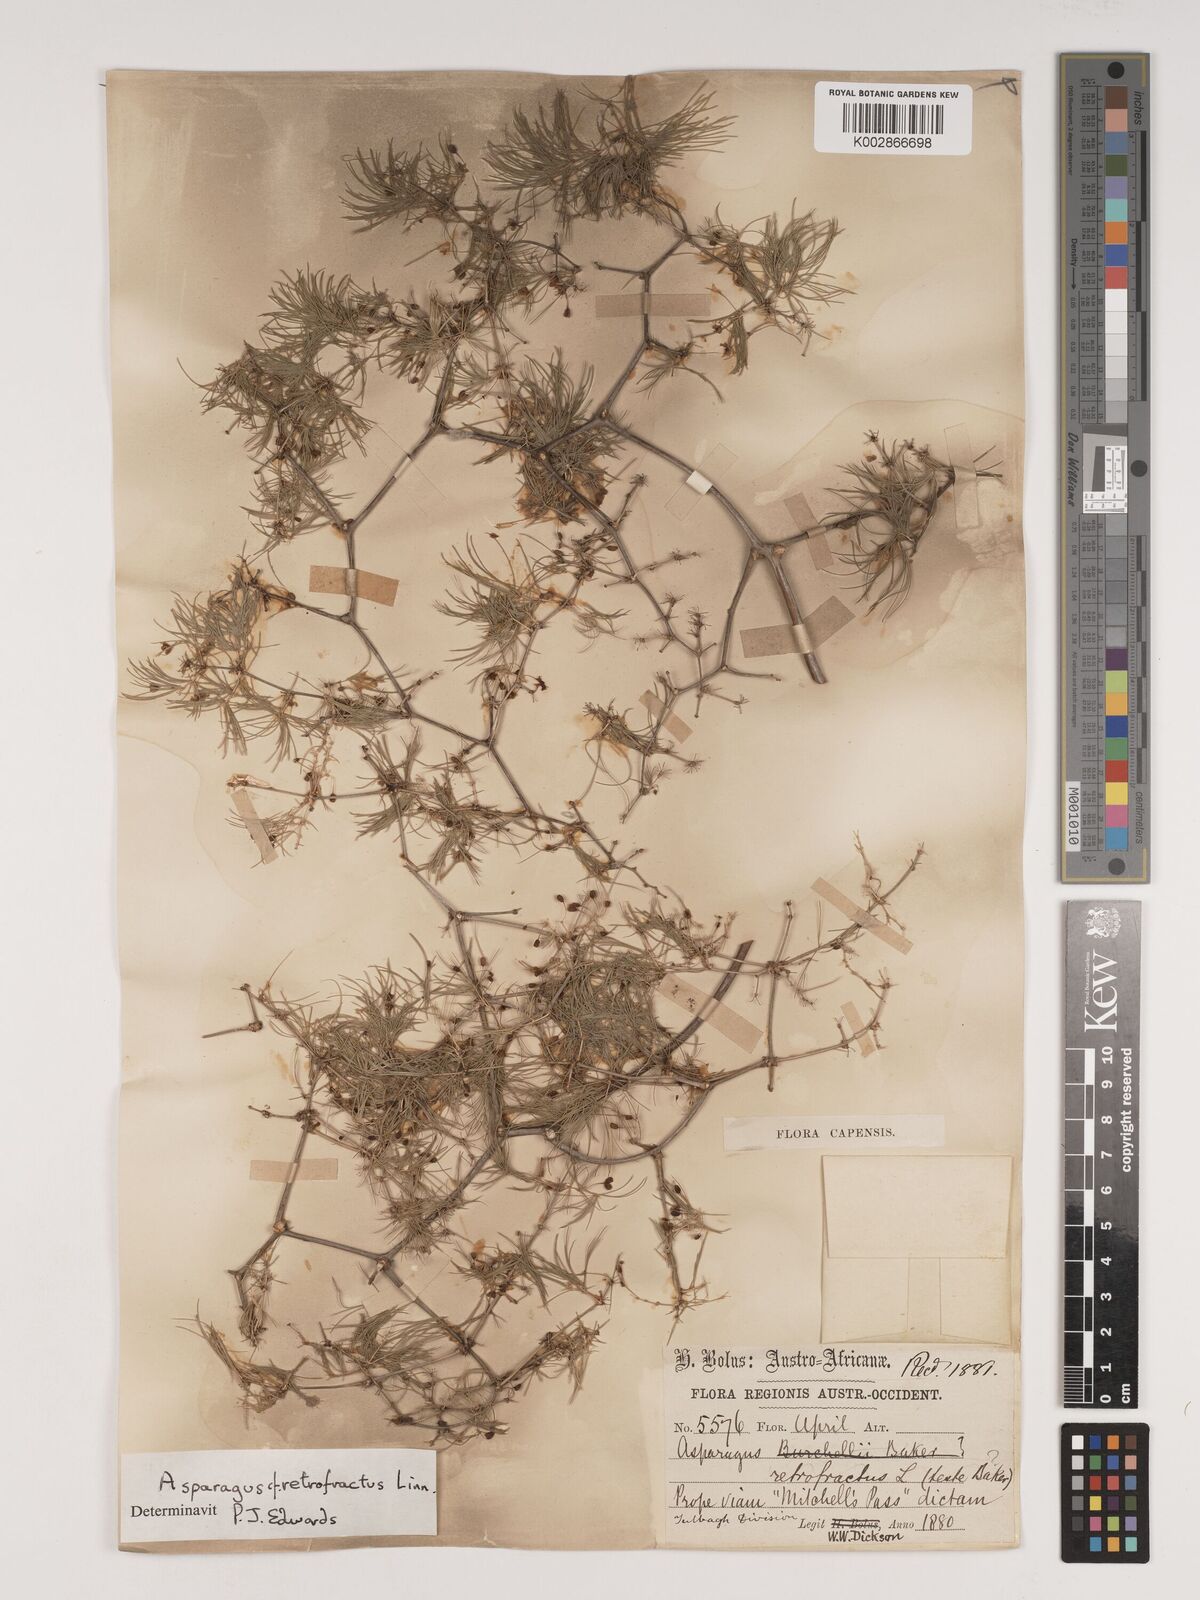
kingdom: Plantae
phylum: Tracheophyta
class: Liliopsida
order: Asparagales
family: Asparagaceae
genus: Asparagus
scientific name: Asparagus retrofractus
